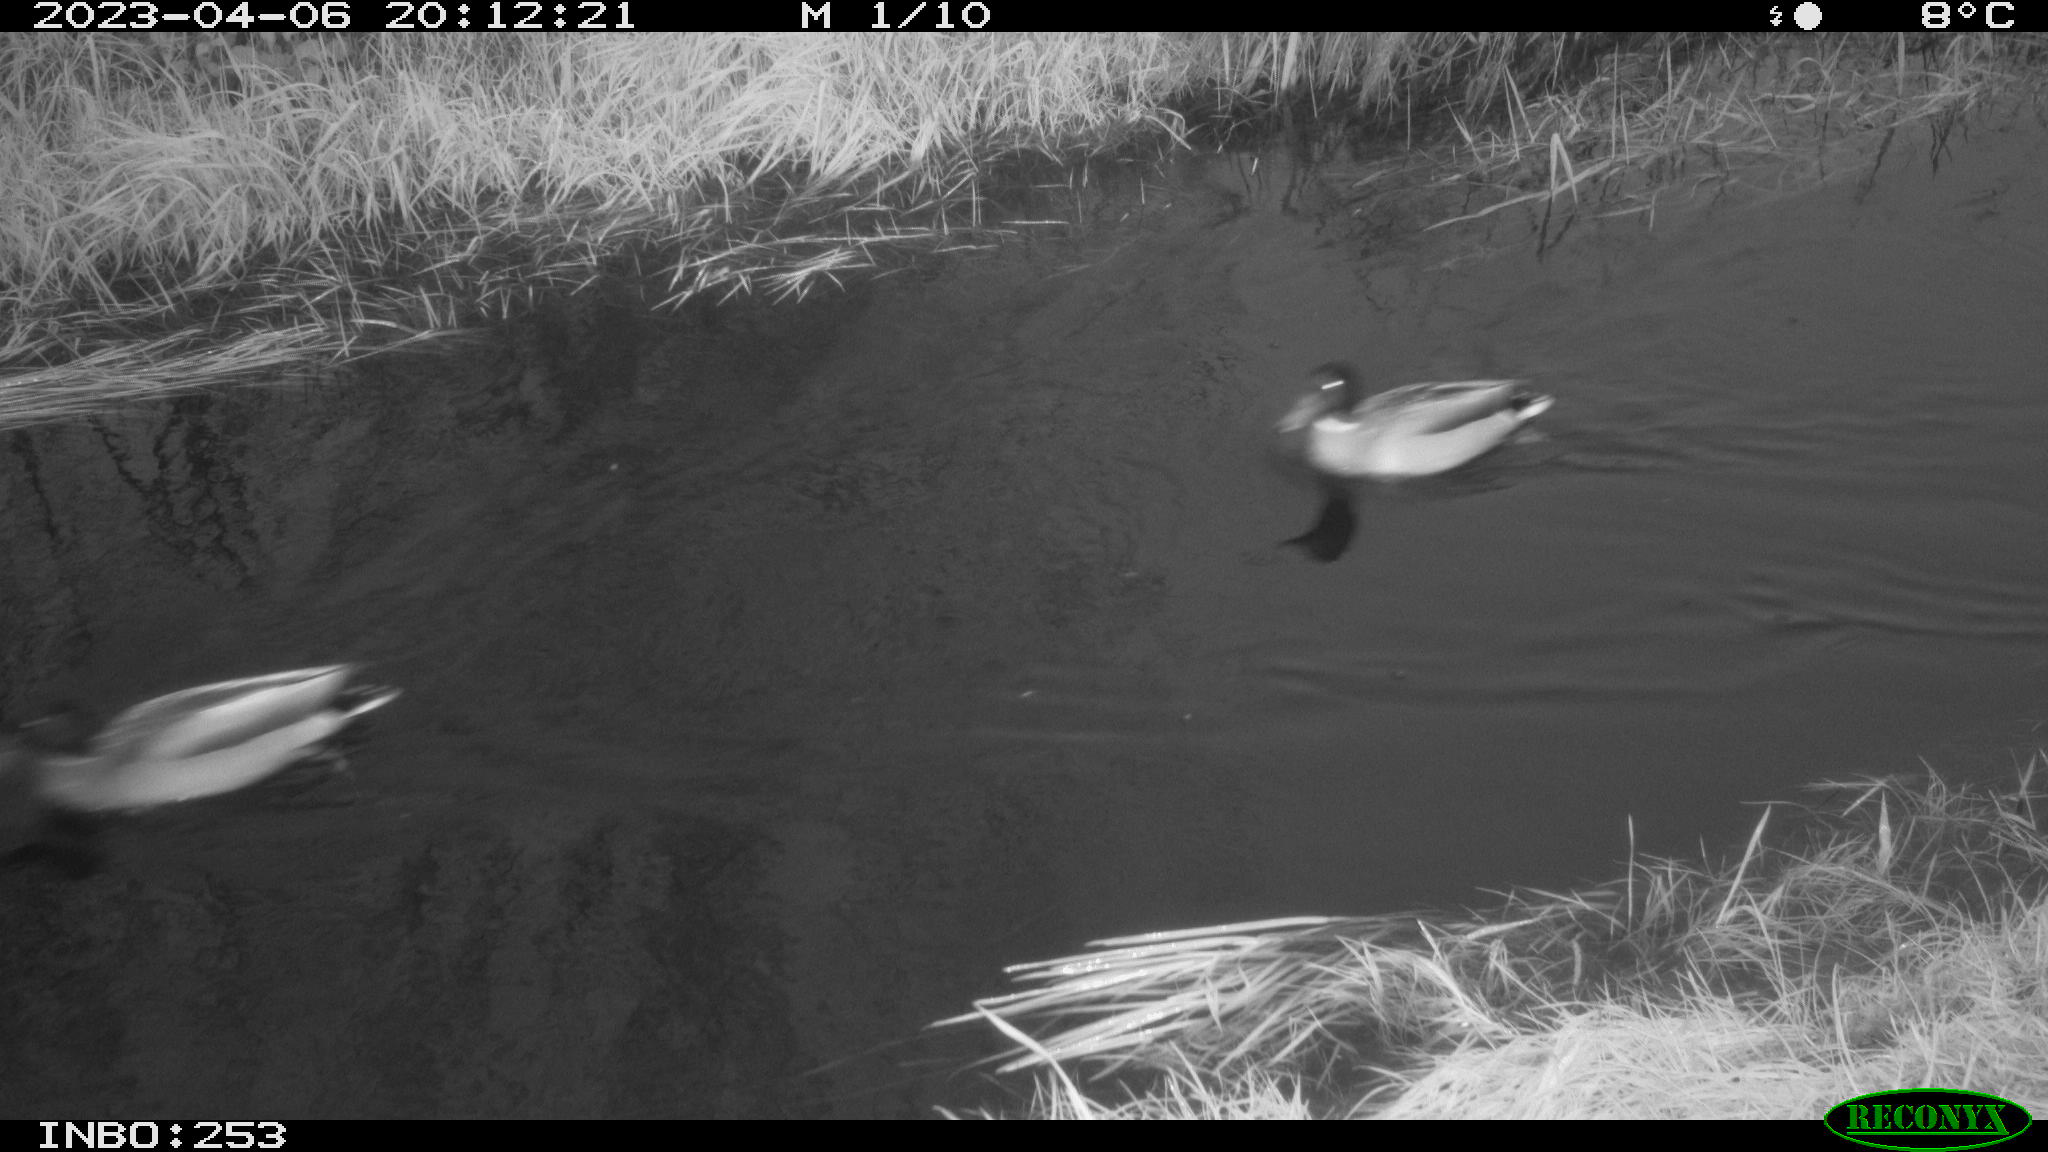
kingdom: Animalia
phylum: Chordata
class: Aves
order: Anseriformes
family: Anatidae
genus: Anas
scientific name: Anas
